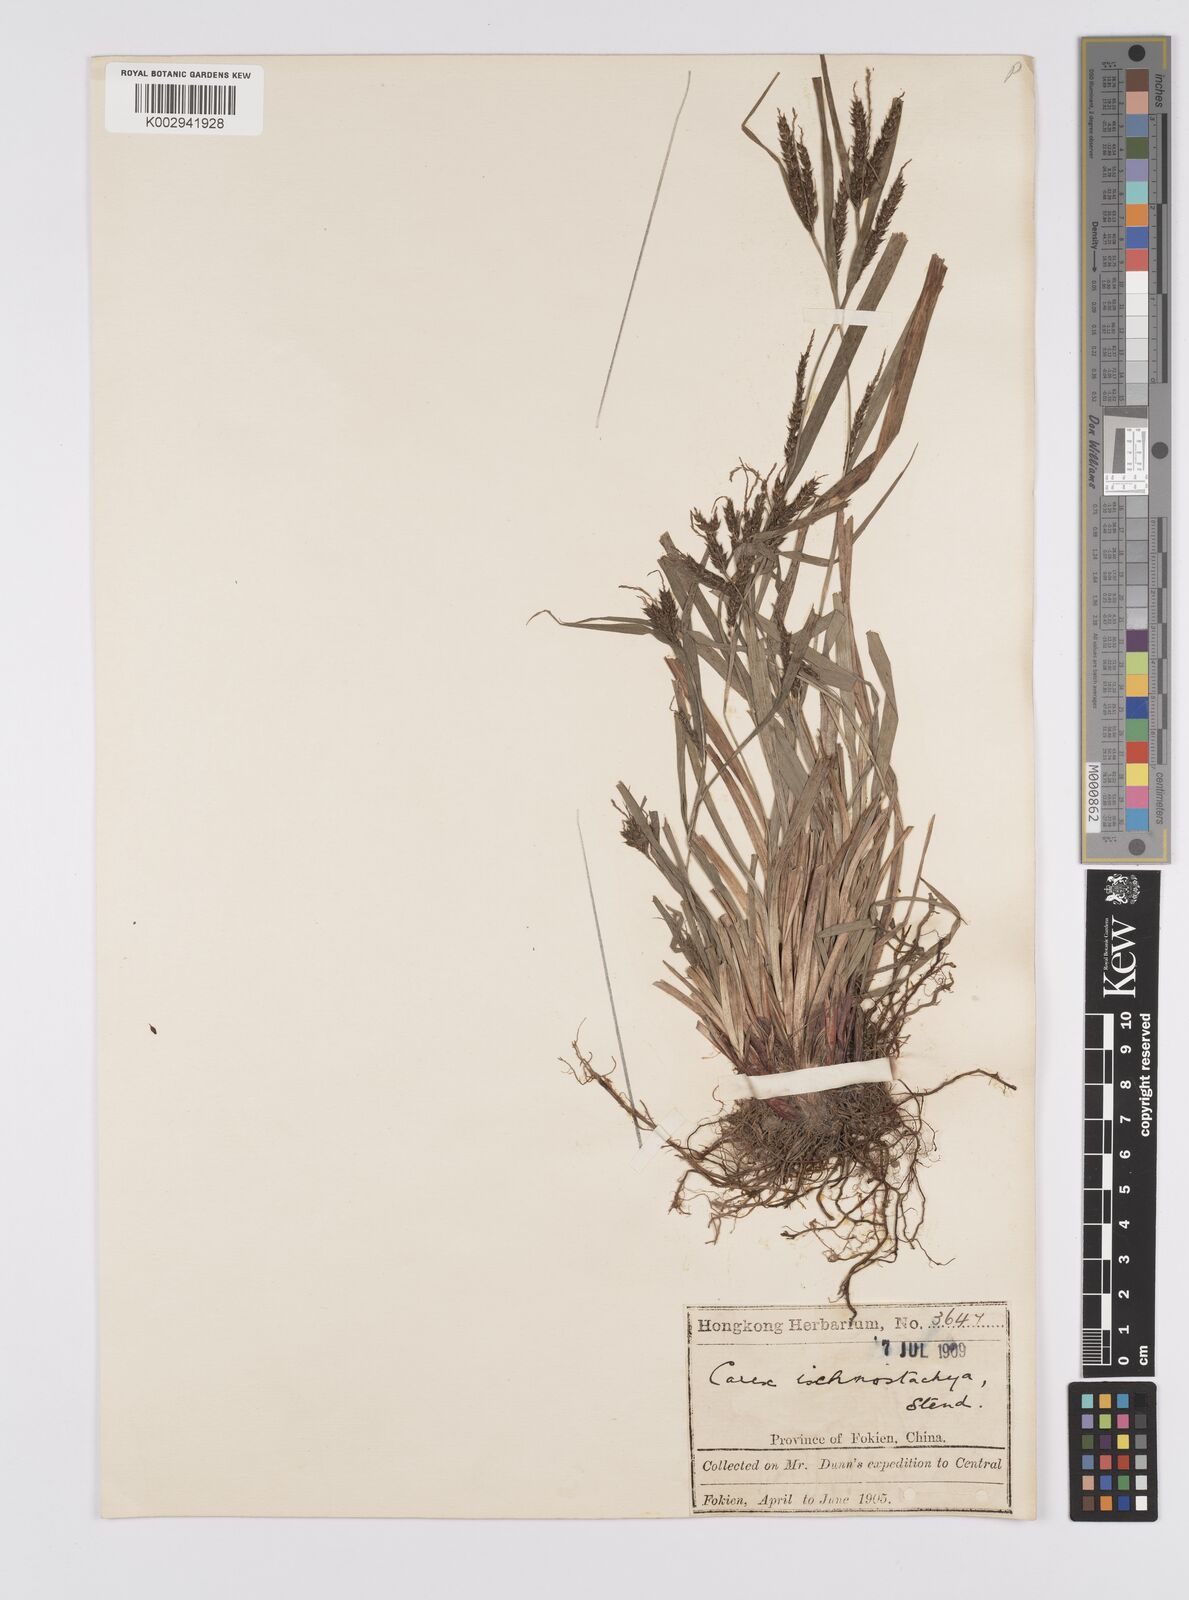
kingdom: Plantae
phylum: Tracheophyta
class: Liliopsida
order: Poales
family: Cyperaceae
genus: Carex
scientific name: Carex ischnostachya
